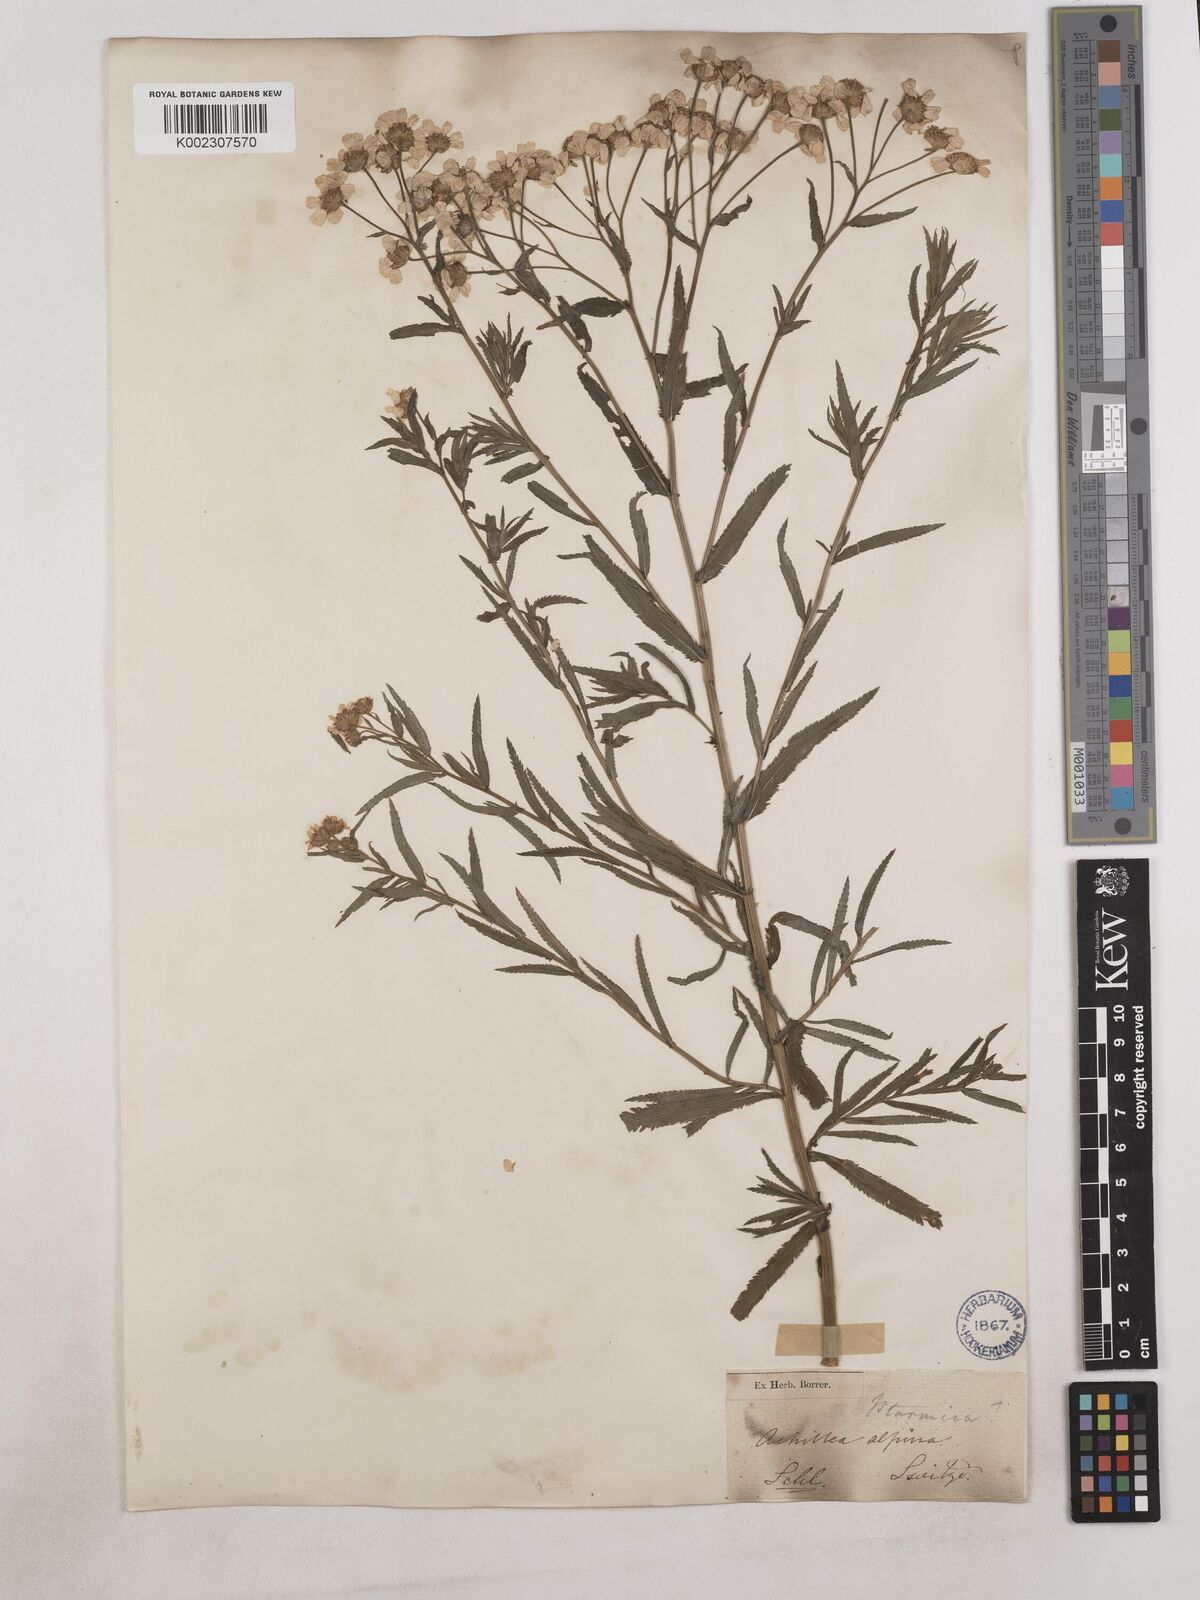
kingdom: Plantae
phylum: Tracheophyta
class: Magnoliopsida
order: Asterales
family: Asteraceae
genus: Achillea
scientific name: Achillea serrata
